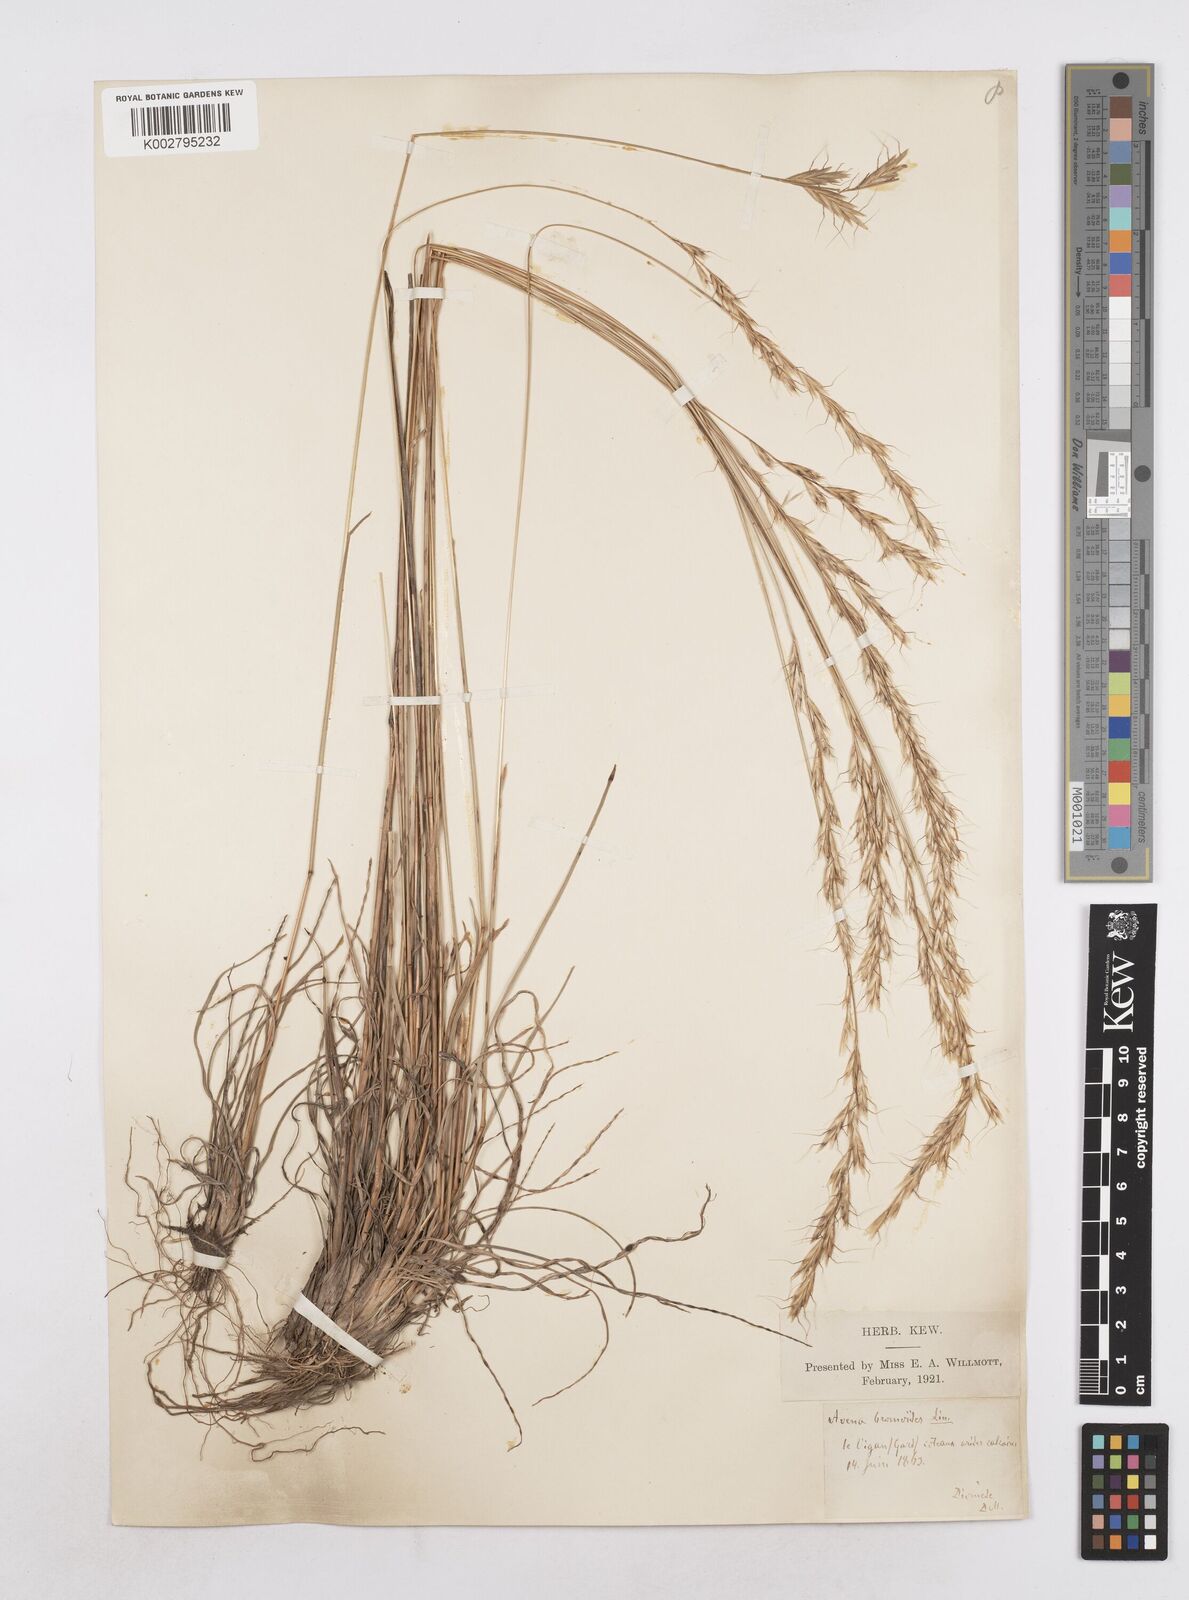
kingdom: Plantae
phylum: Tracheophyta
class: Liliopsida
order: Poales
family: Poaceae
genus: Helictochloa
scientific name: Helictochloa bromoides
